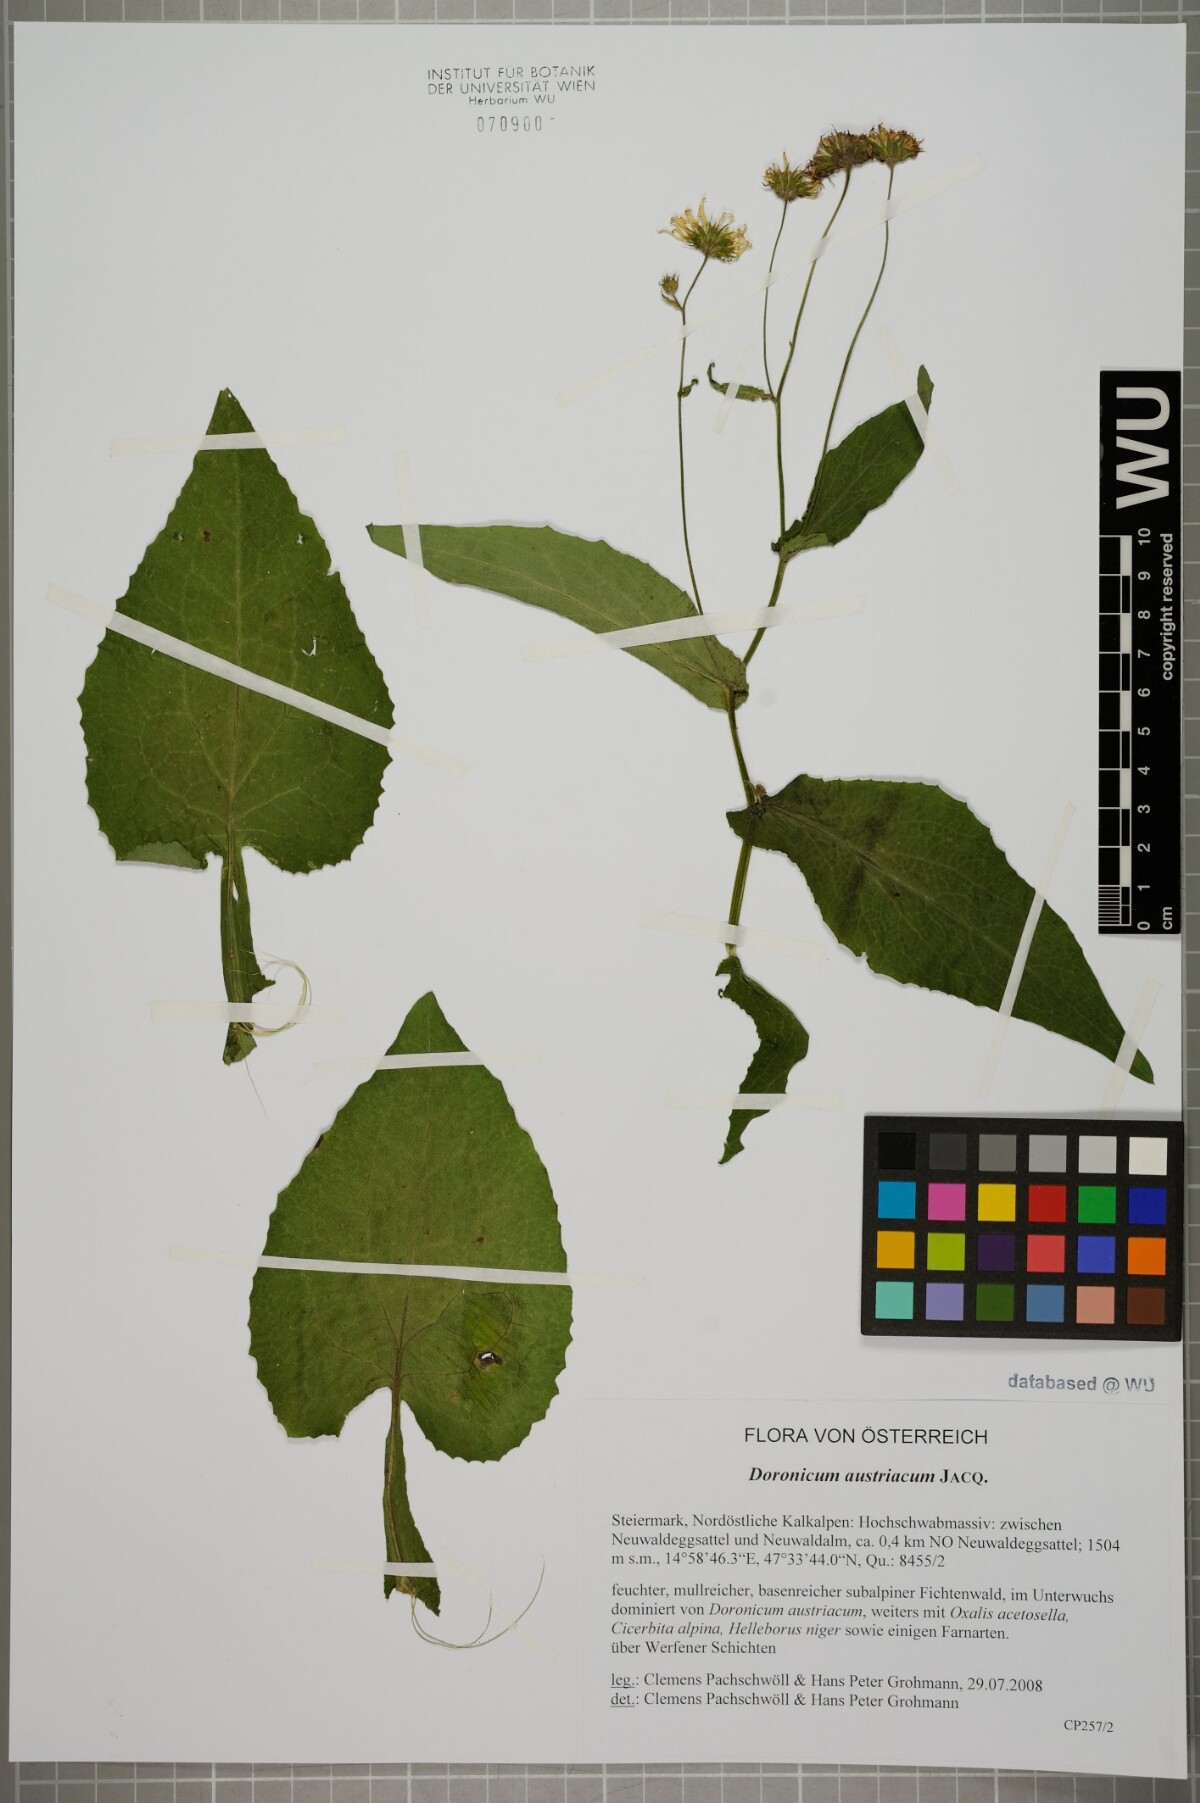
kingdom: Plantae
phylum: Tracheophyta
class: Magnoliopsida
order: Asterales
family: Asteraceae
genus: Doronicum
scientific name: Doronicum austriacum
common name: Austrian leopard's-bane
